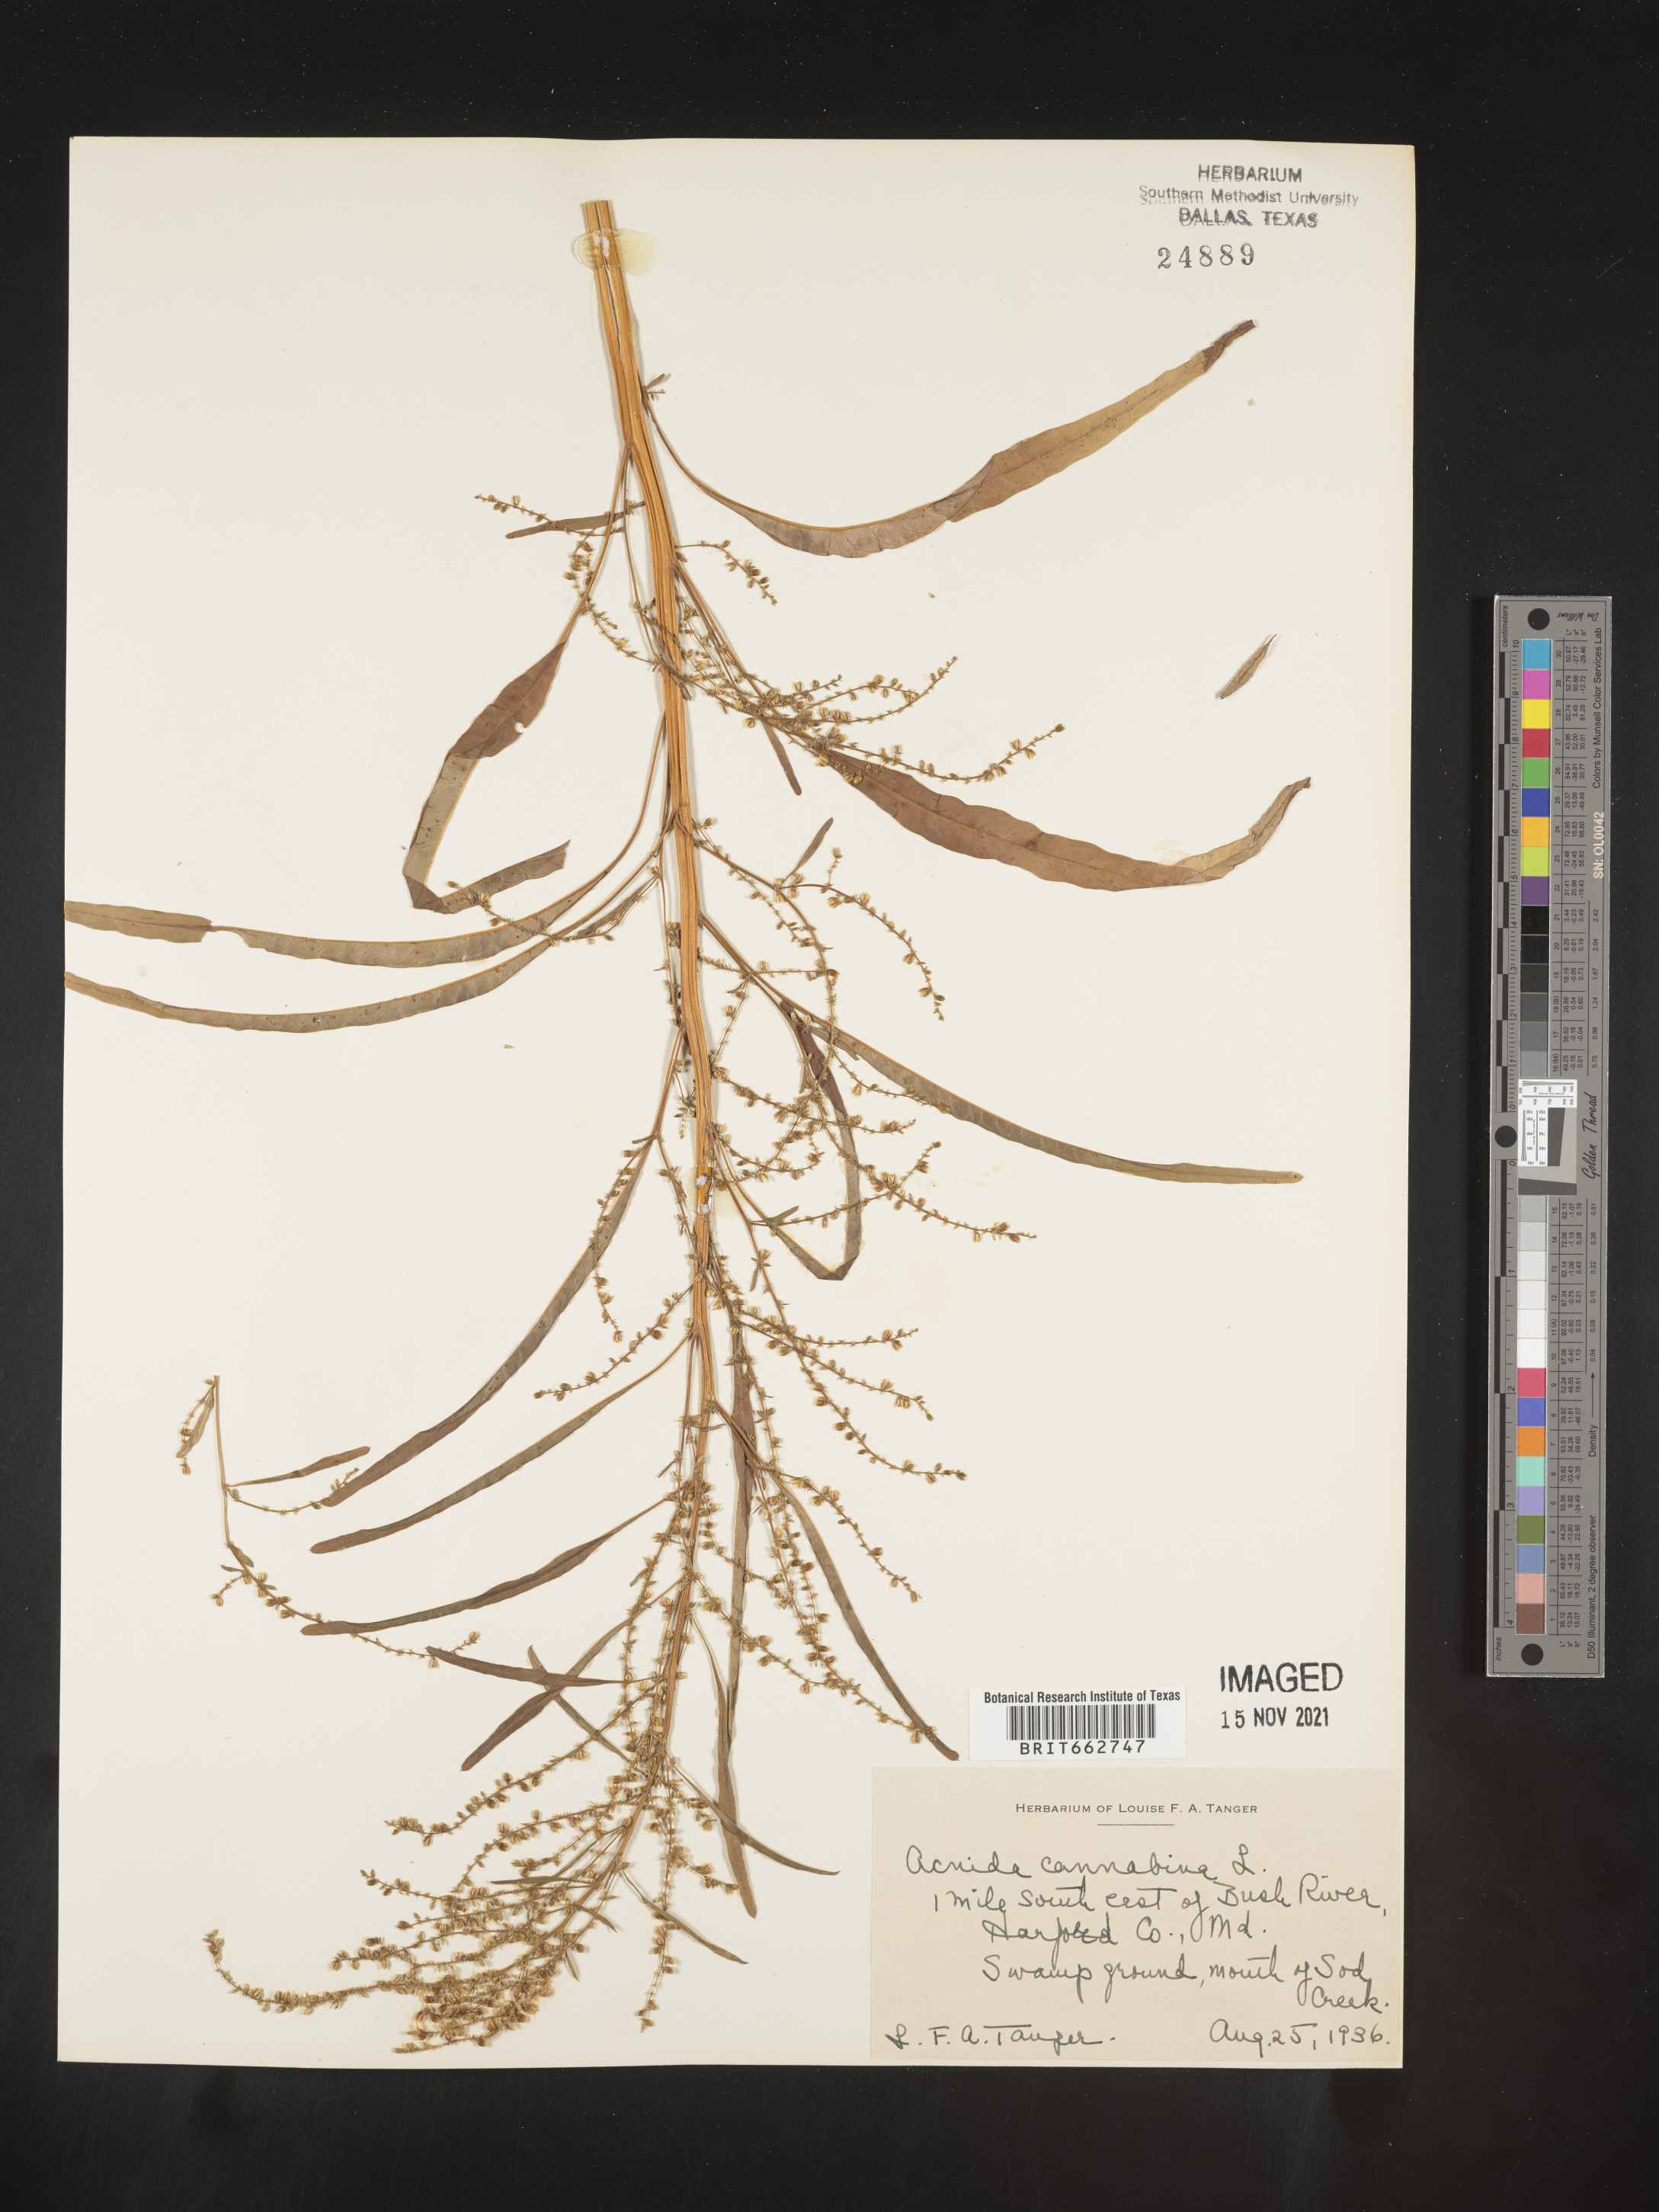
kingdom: Plantae
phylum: Tracheophyta
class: Magnoliopsida
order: Caryophyllales
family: Amaranthaceae
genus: Amaranthus
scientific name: Amaranthus powellii
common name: Powell's amaranth
